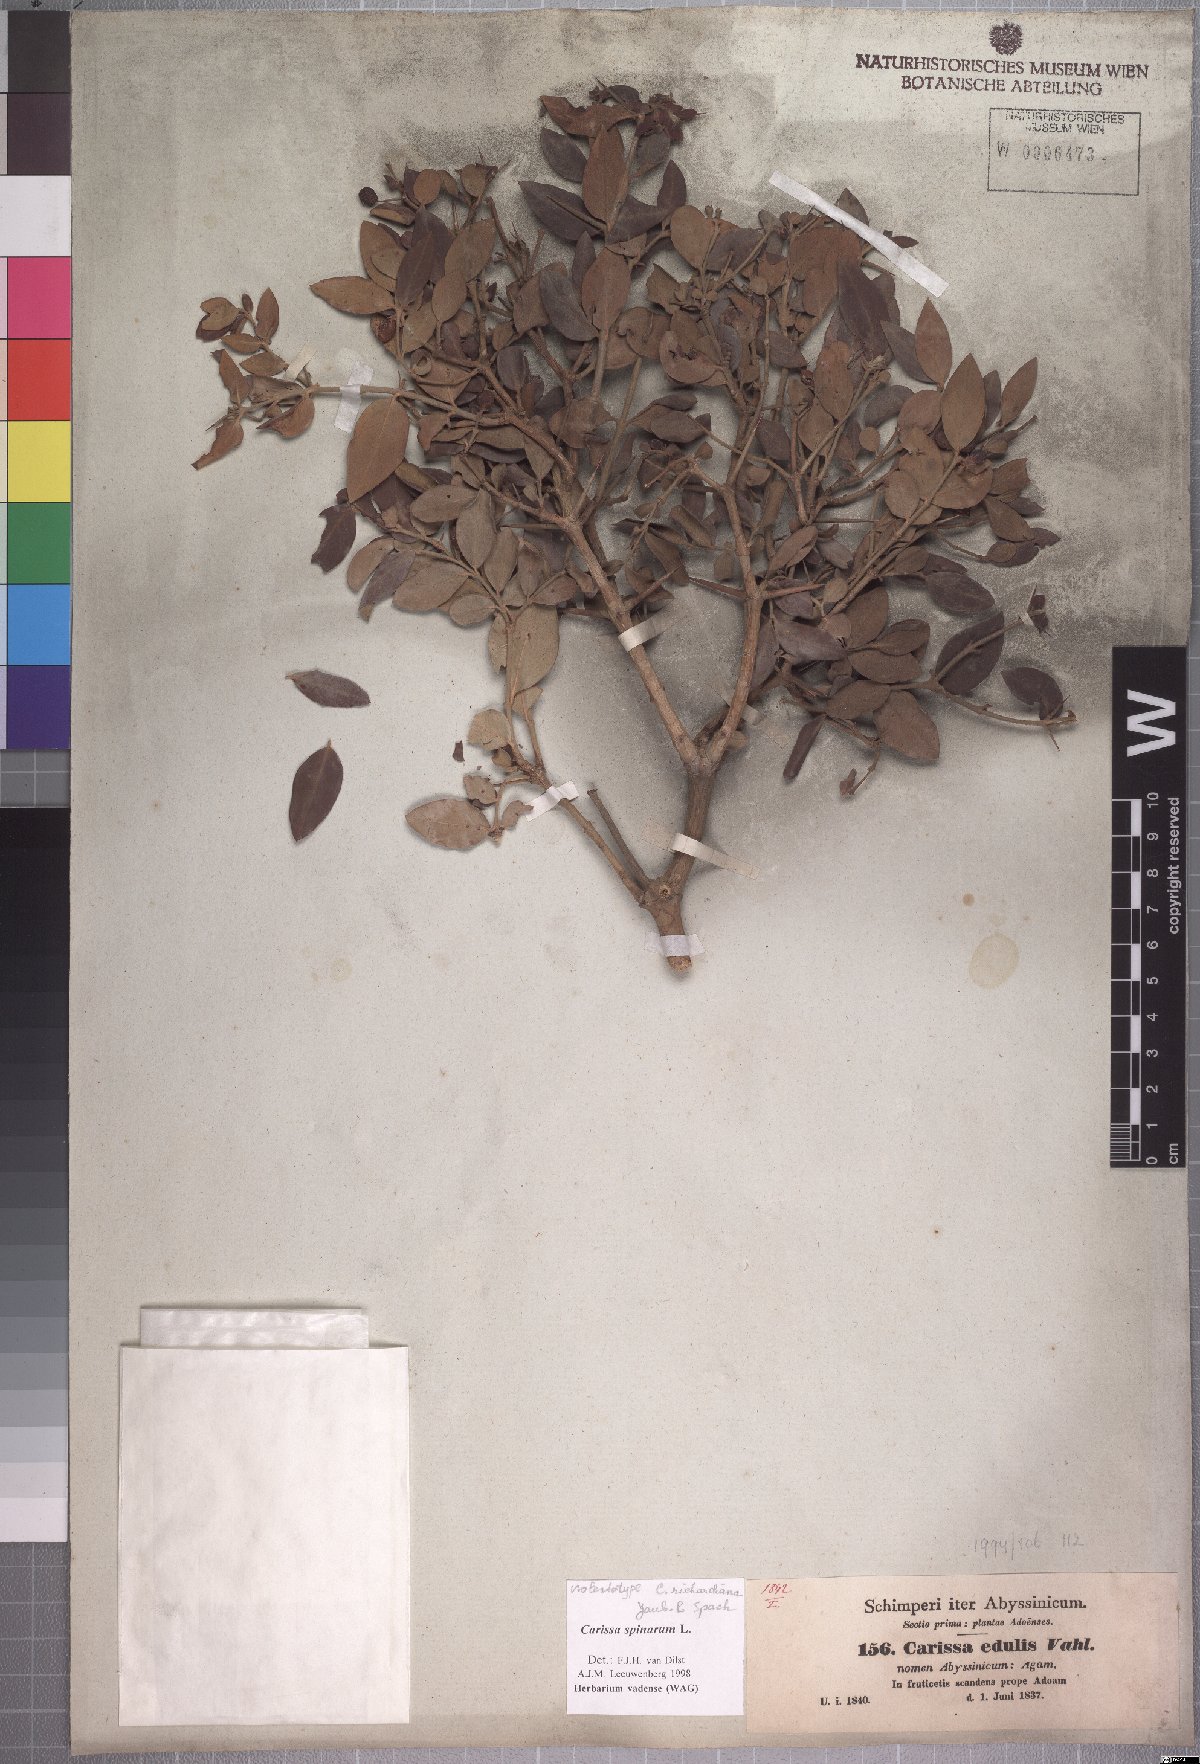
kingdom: Plantae
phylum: Tracheophyta
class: Magnoliopsida
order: Gentianales
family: Apocynaceae
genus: Carissa
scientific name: Carissa spinarum
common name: Egyptian carissa
